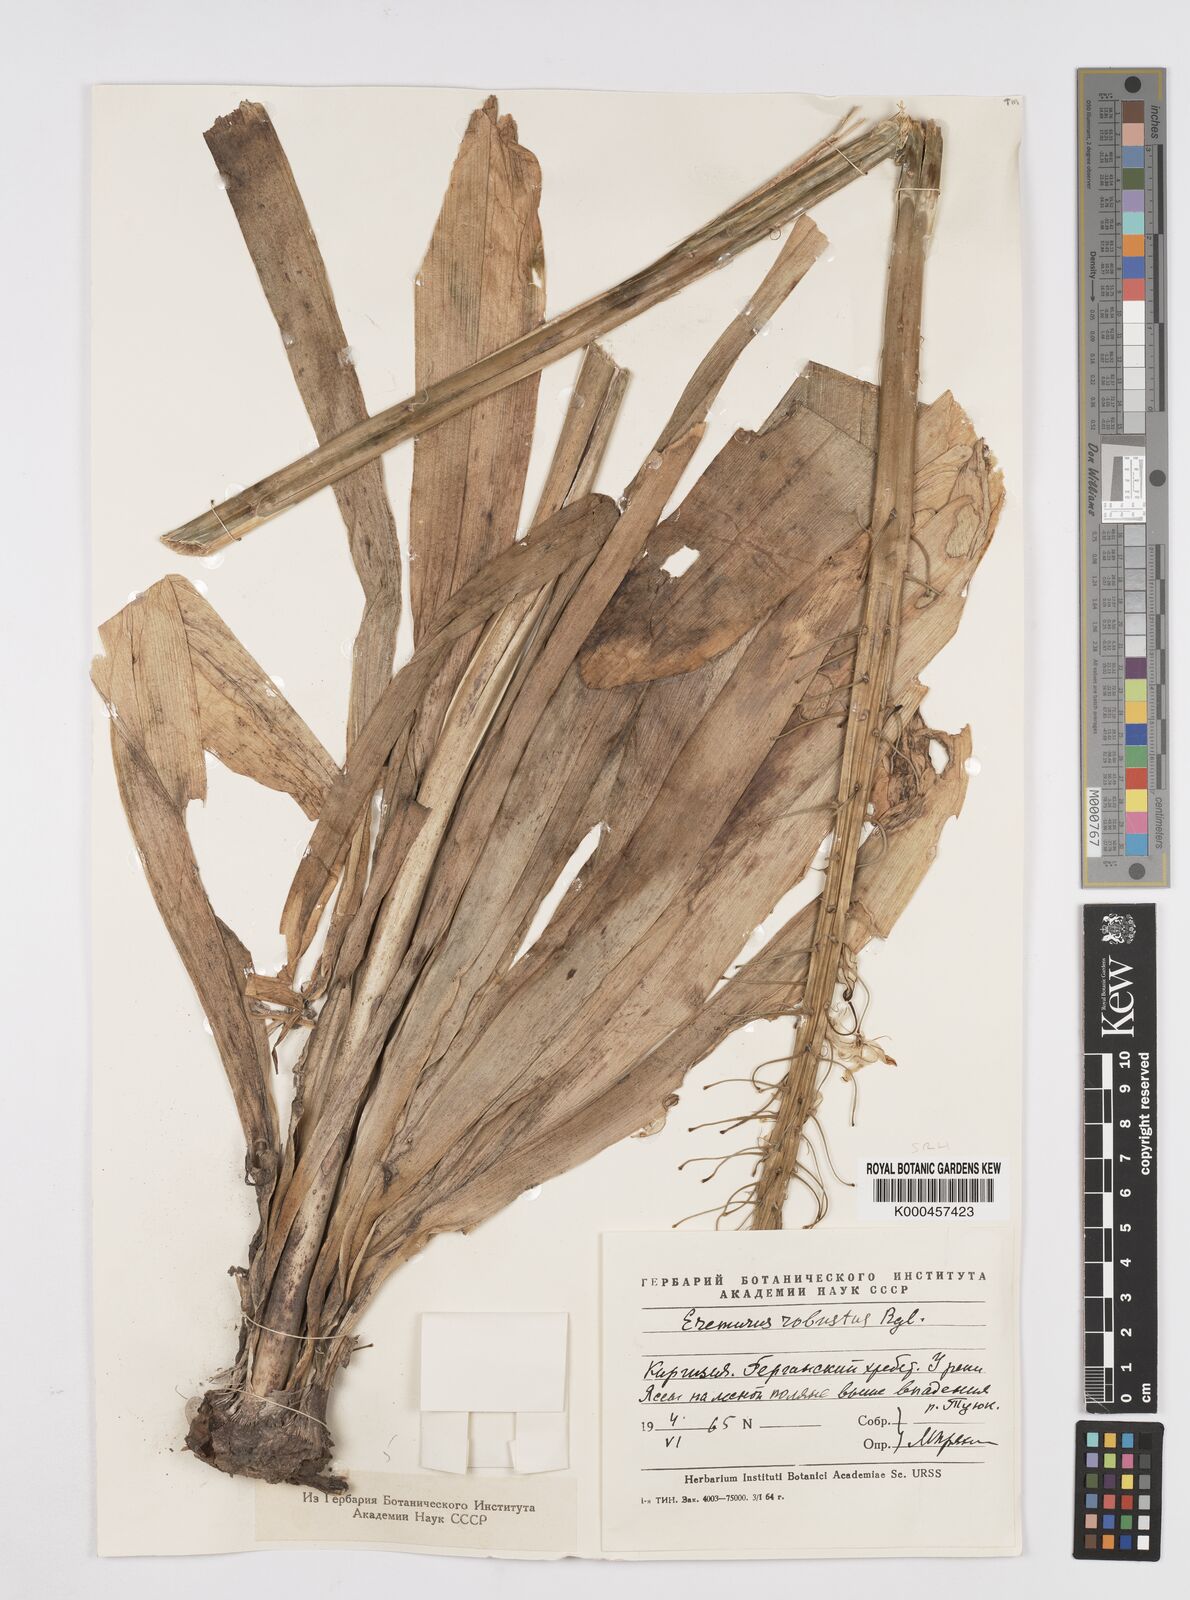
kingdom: Plantae
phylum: Tracheophyta
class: Liliopsida
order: Asparagales
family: Asphodelaceae
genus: Eremurus
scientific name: Eremurus robustus
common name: Foxtail lily
